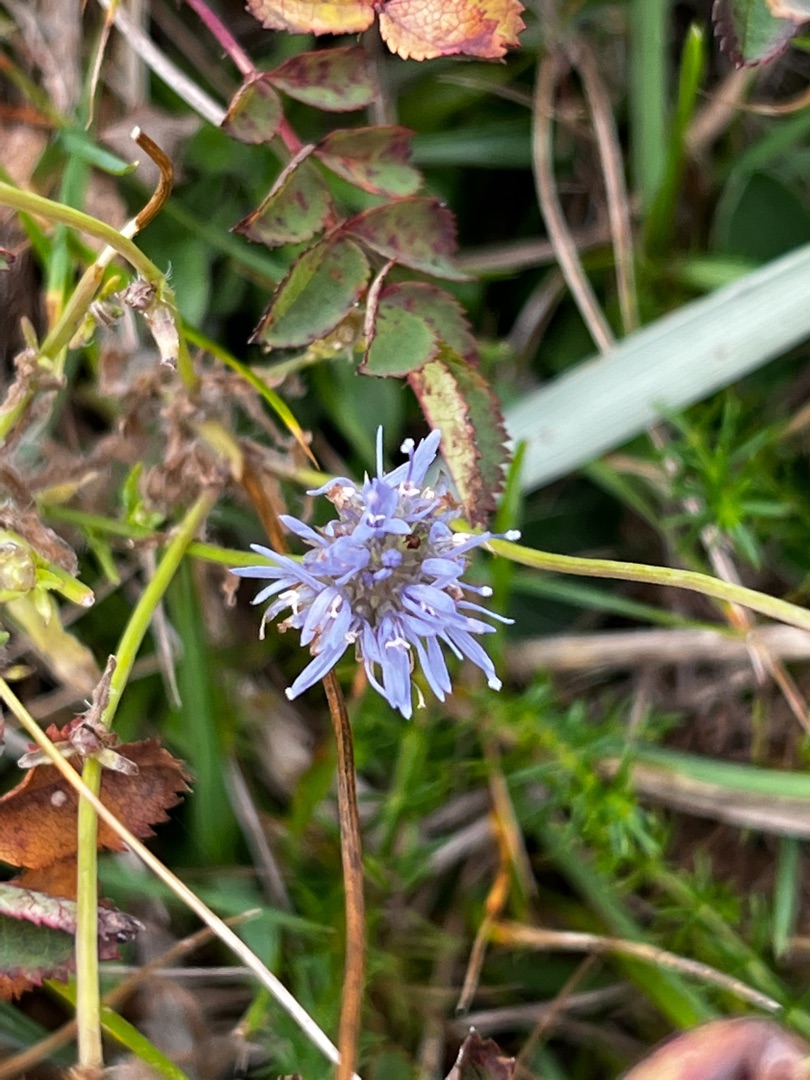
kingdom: Plantae
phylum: Tracheophyta
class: Magnoliopsida
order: Asterales
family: Campanulaceae
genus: Jasione
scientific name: Jasione montana
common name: Blåmunke
